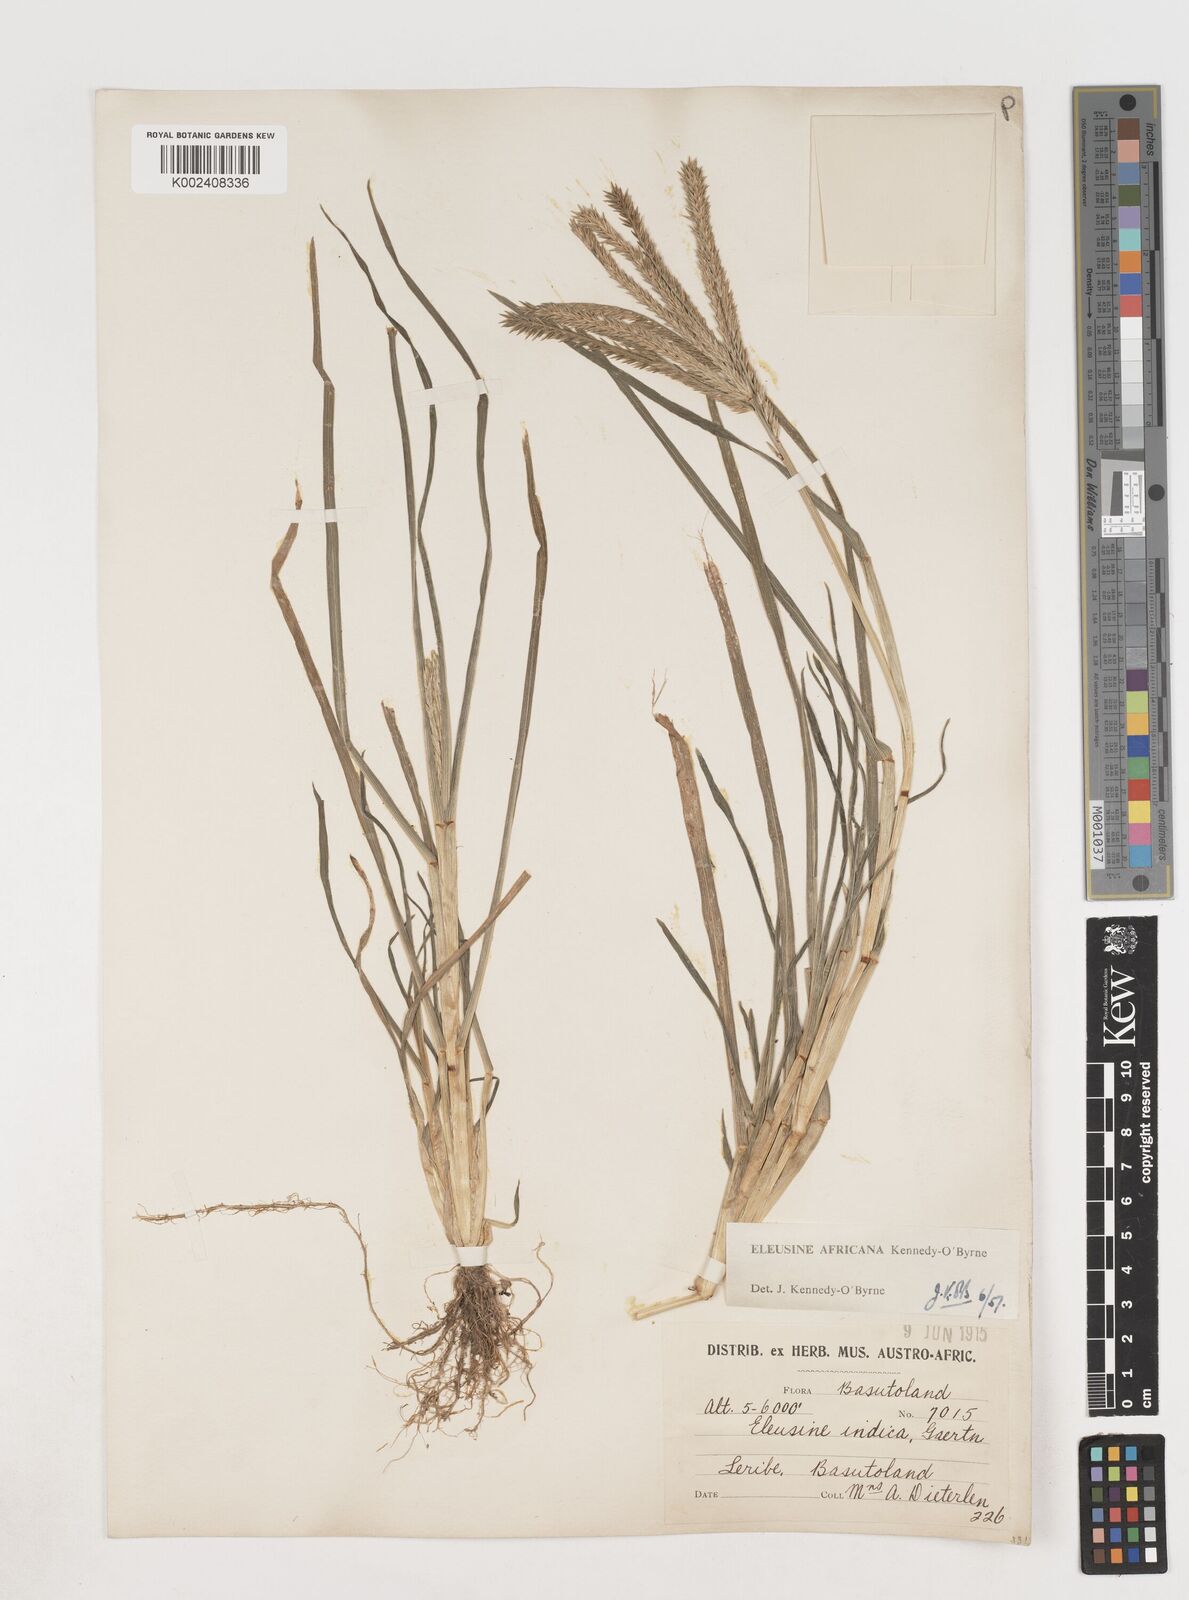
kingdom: Plantae
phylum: Tracheophyta
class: Liliopsida
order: Poales
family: Poaceae
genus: Eleusine
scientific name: Eleusine africana
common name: Wild african finger millet
